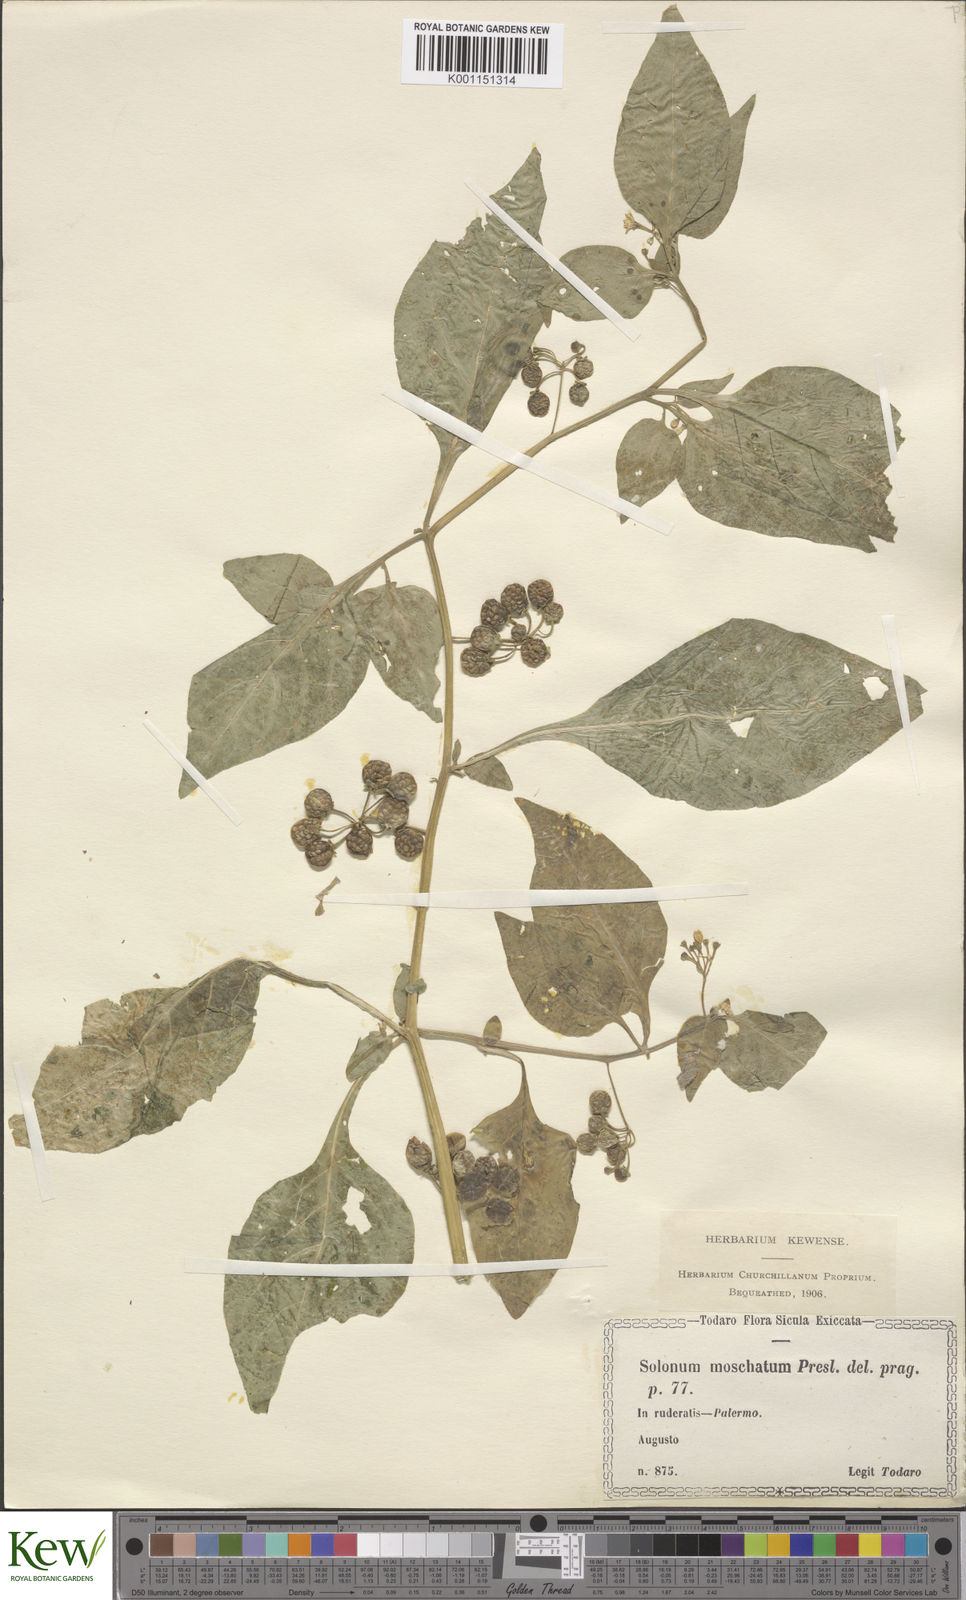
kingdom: Plantae
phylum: Tracheophyta
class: Magnoliopsida
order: Solanales
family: Solanaceae
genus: Solanum
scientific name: Solanum nigrum
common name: Black nightshade
